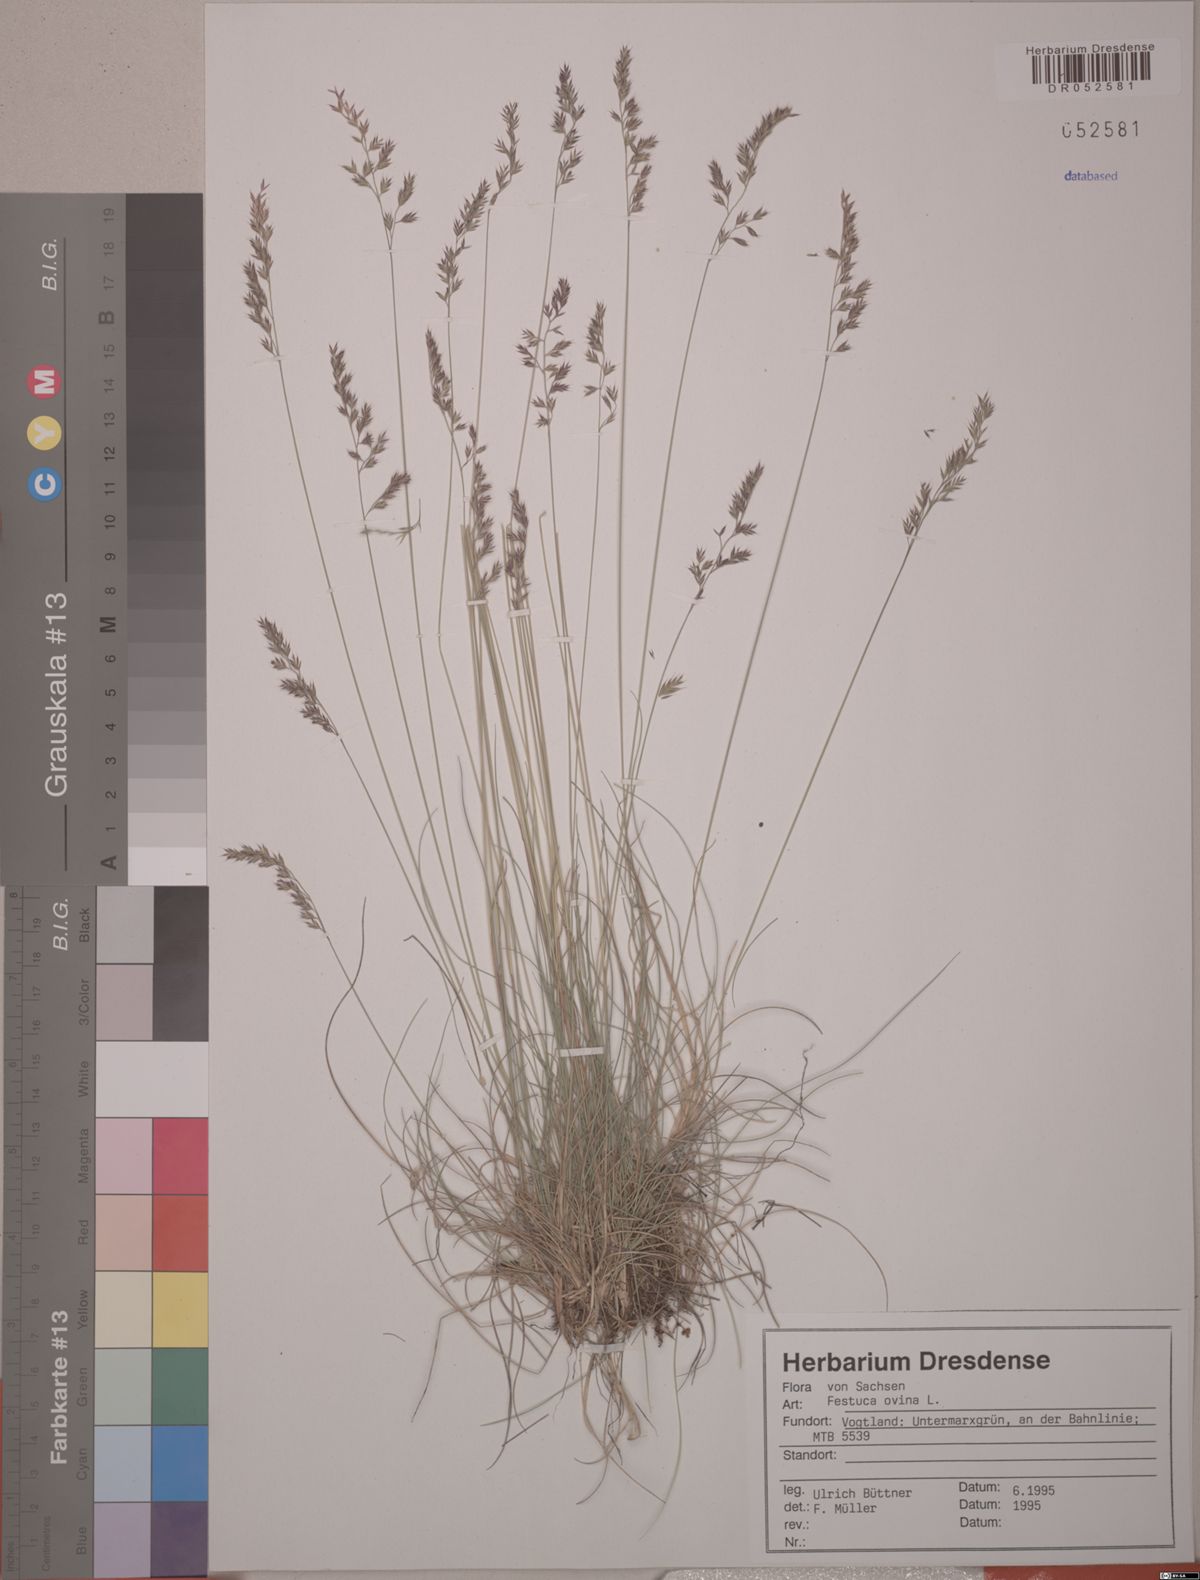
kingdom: Plantae
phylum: Tracheophyta
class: Liliopsida
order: Poales
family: Poaceae
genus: Festuca
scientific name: Festuca ovina
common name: Sheep fescue
